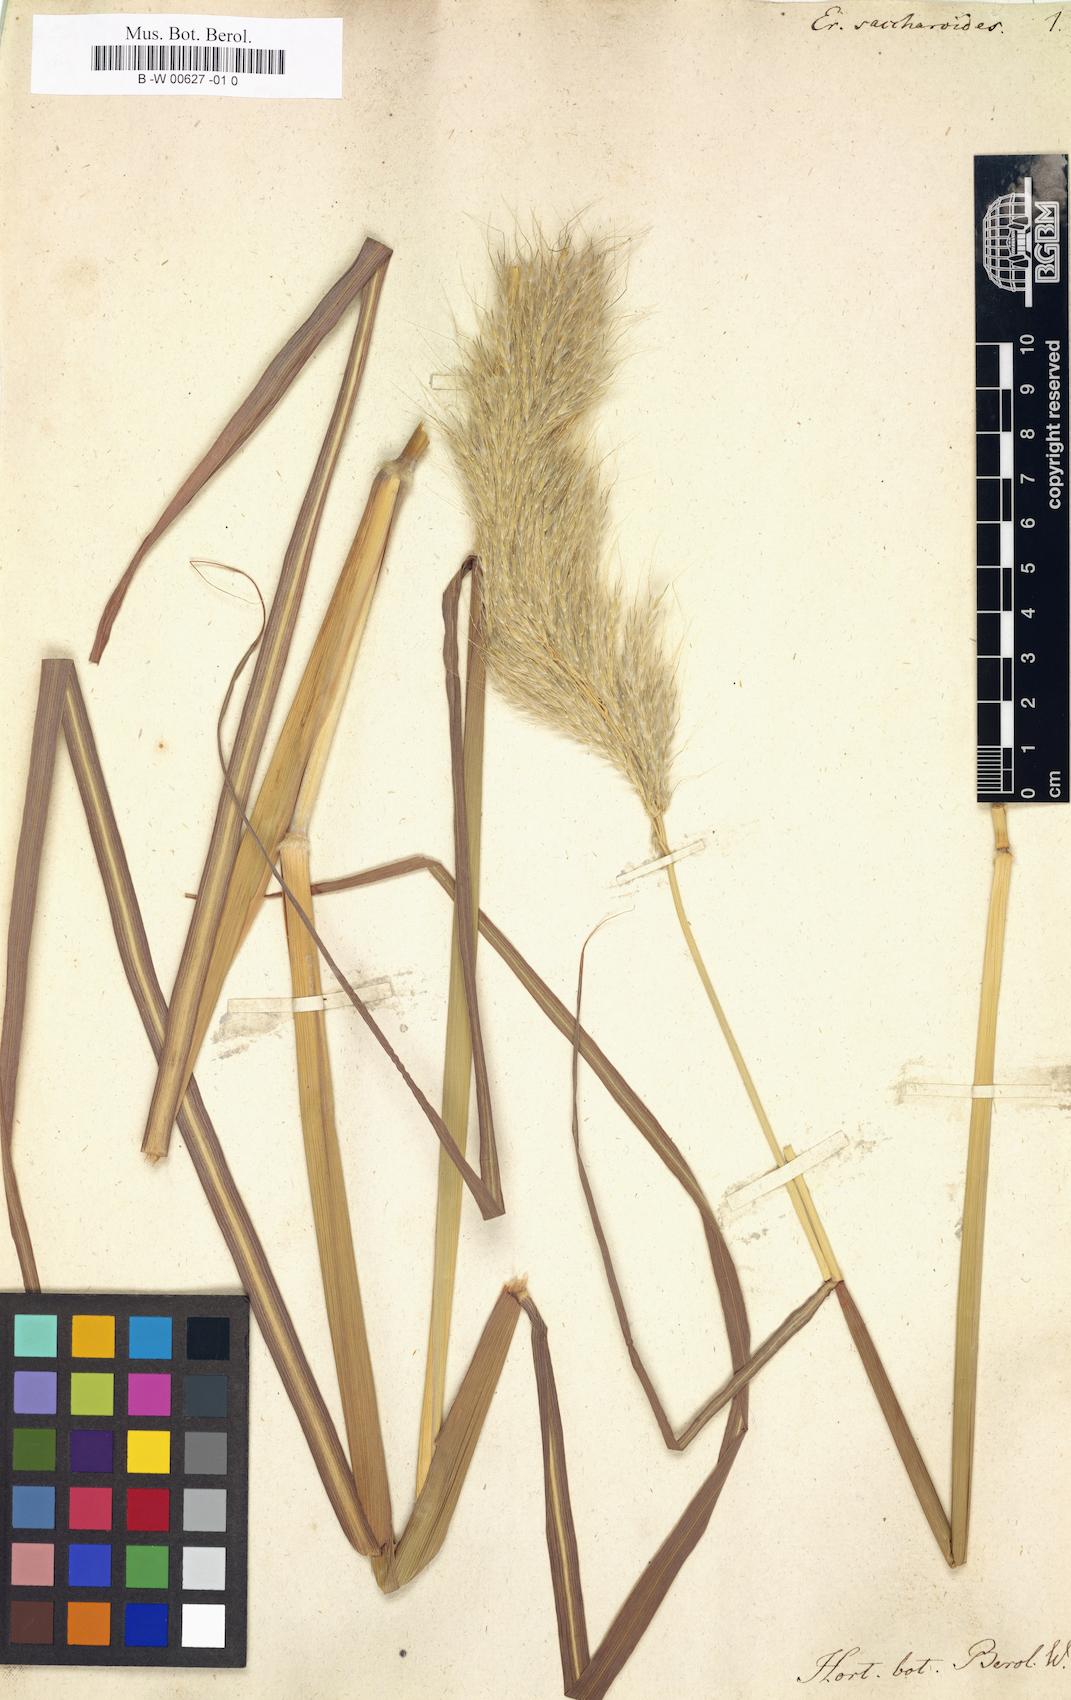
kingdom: Plantae
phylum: Tracheophyta
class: Liliopsida
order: Poales
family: Poaceae
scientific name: Poaceae
